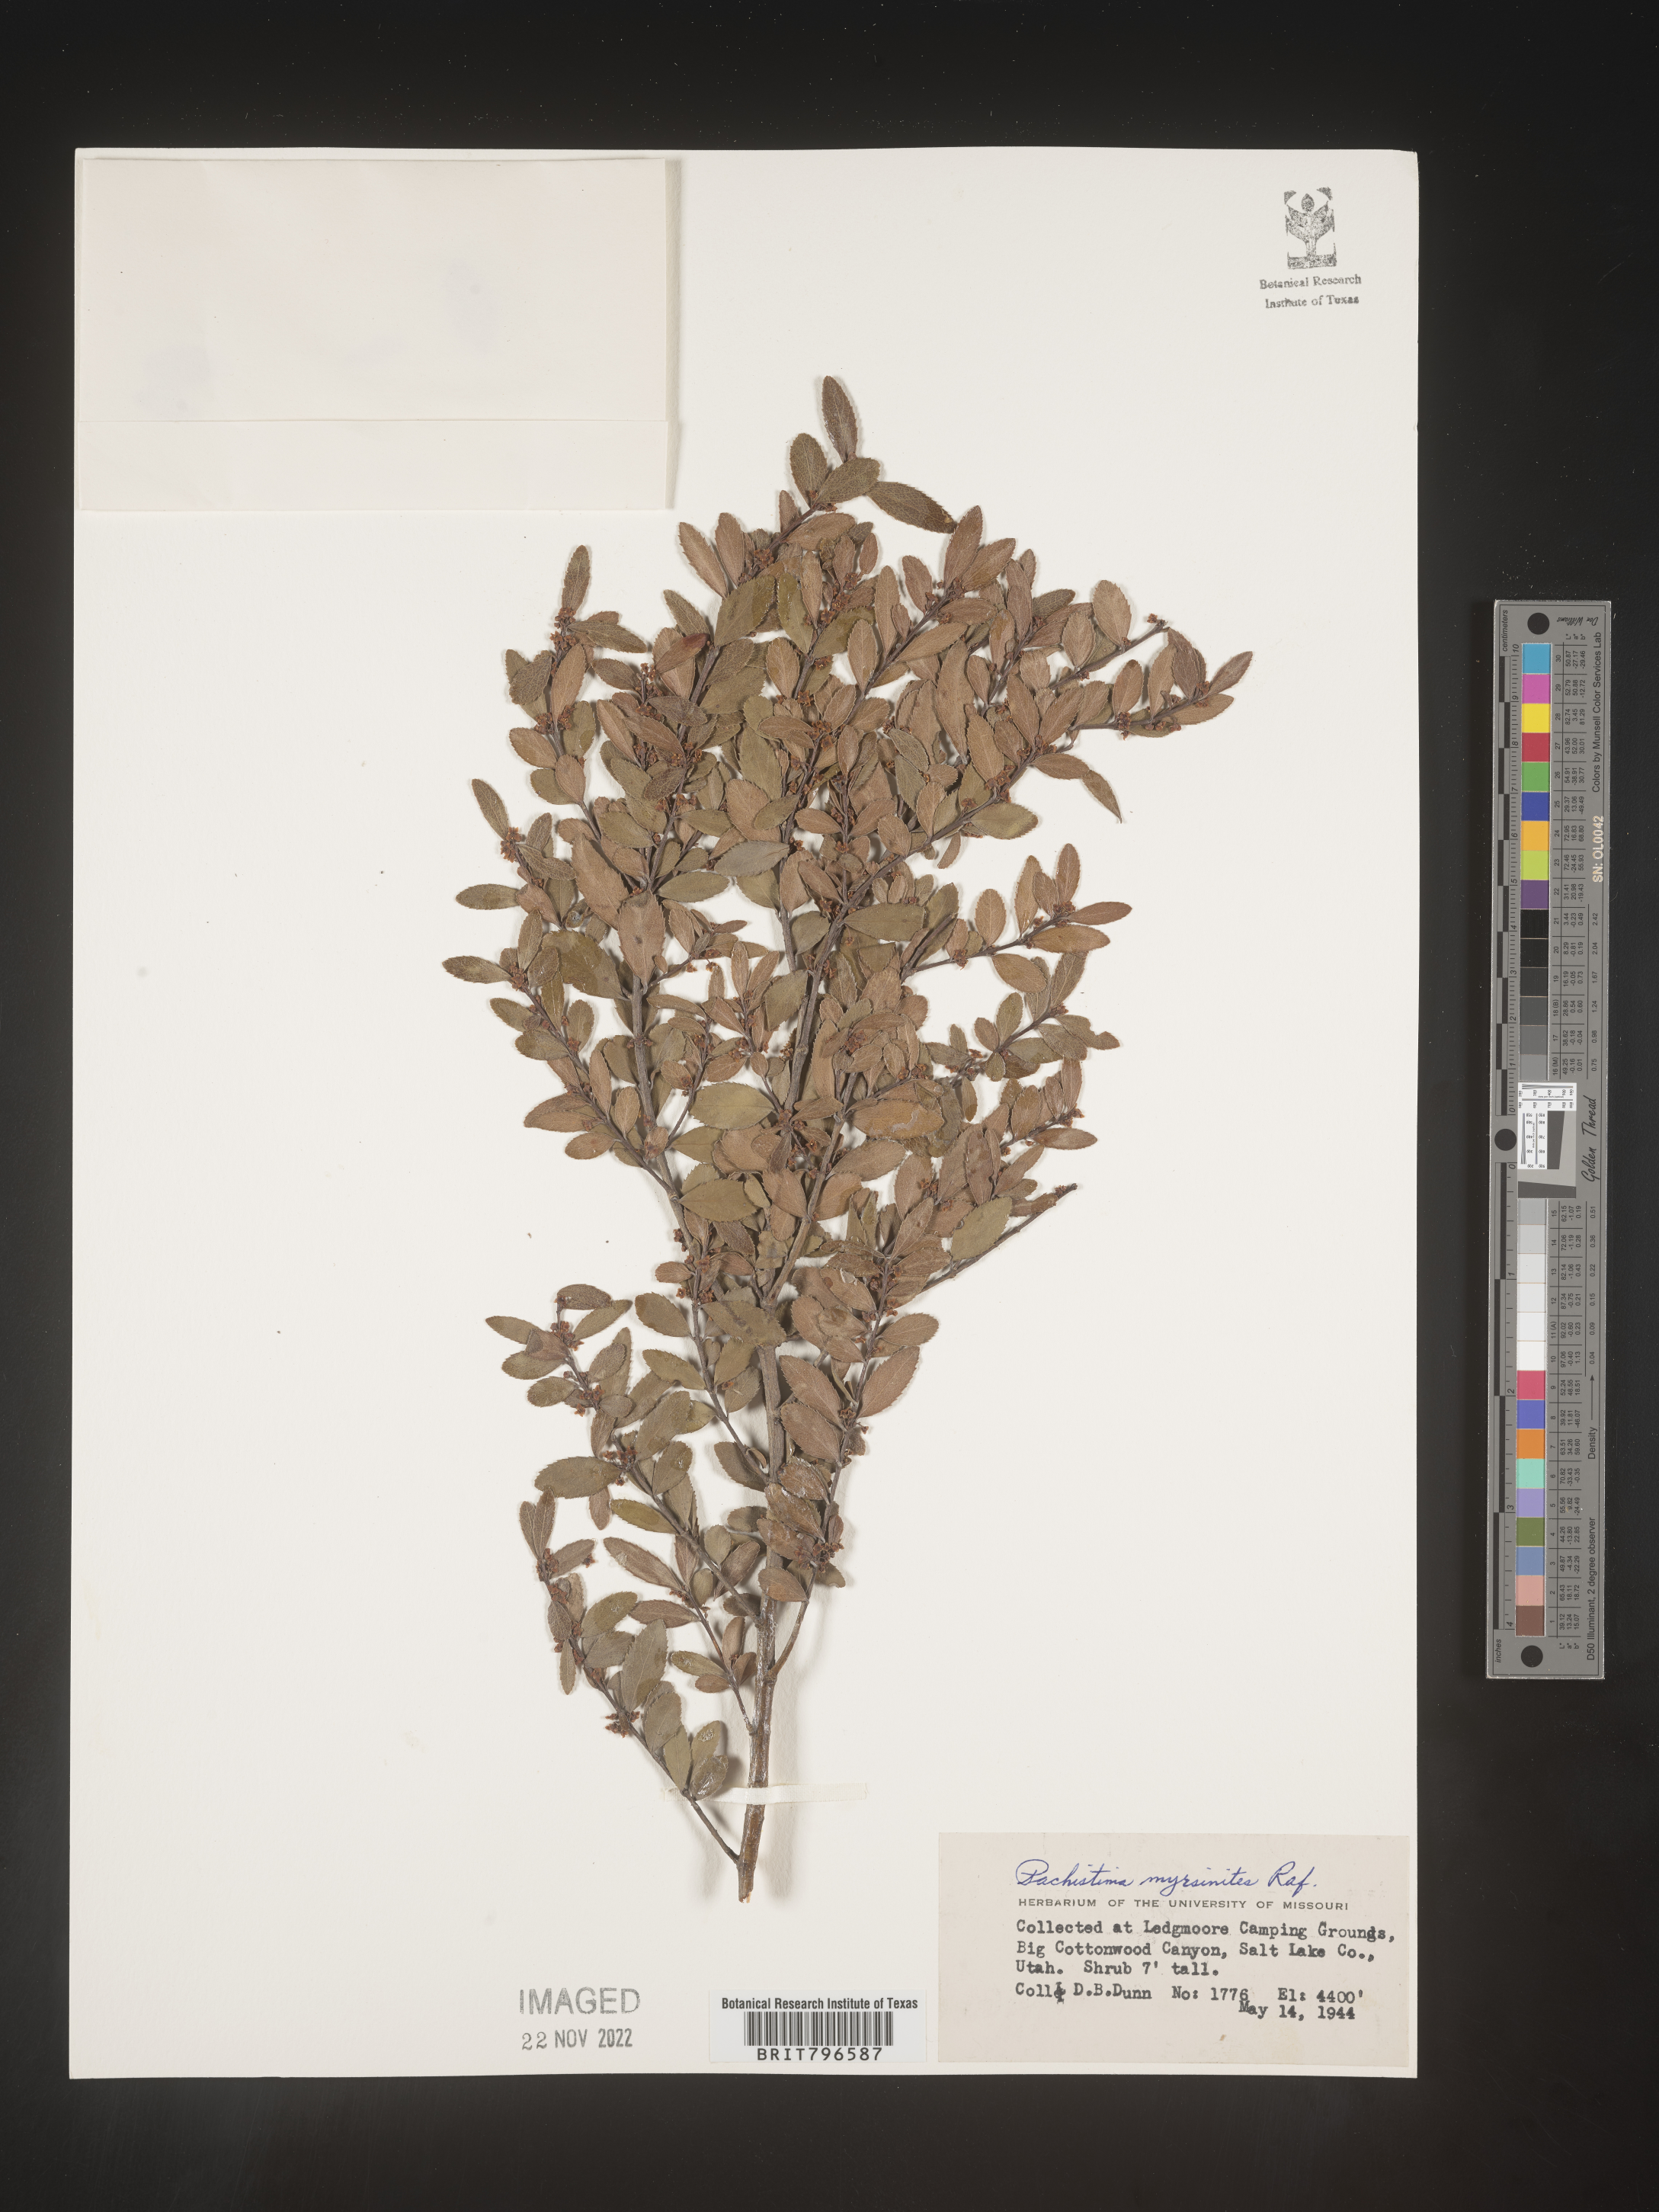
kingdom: Plantae
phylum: Tracheophyta
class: Magnoliopsida
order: Celastrales
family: Celastraceae
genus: Paxistima
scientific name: Paxistima myrsinites
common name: Mountain-lover
